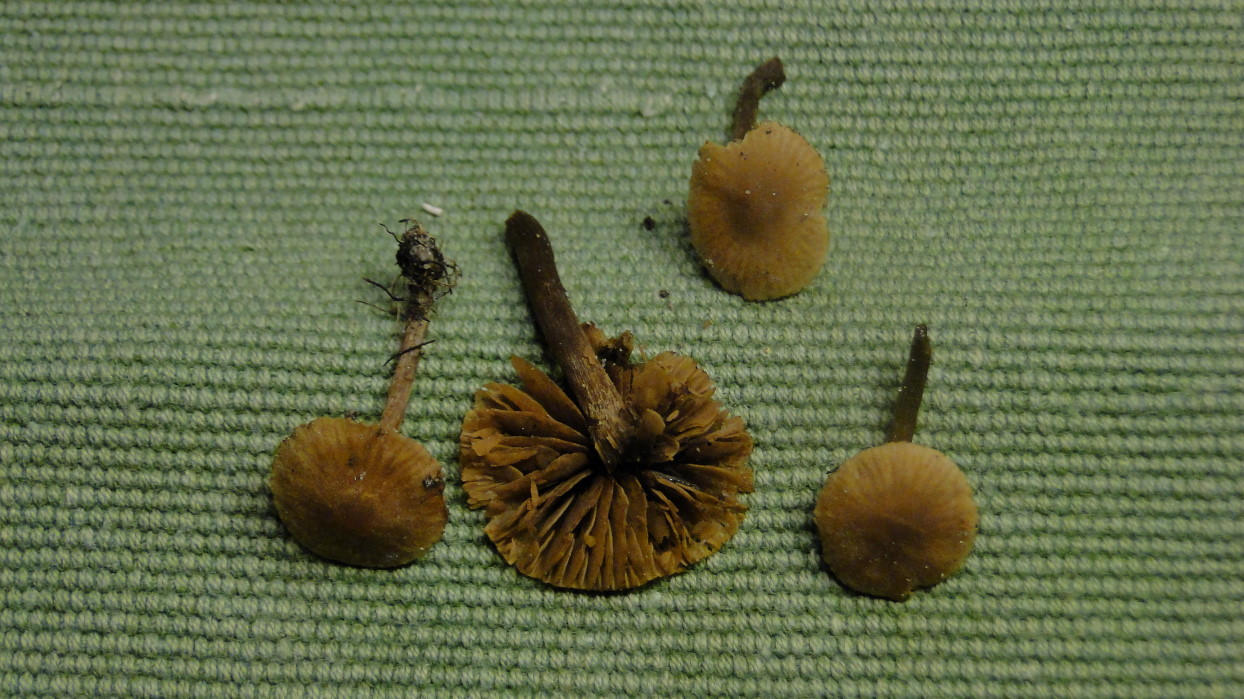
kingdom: Fungi
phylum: Basidiomycota
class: Agaricomycetes
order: Agaricales
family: Hymenogastraceae
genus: Naucoria
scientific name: Naucoria scolecina
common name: mørk elle-knaphat
